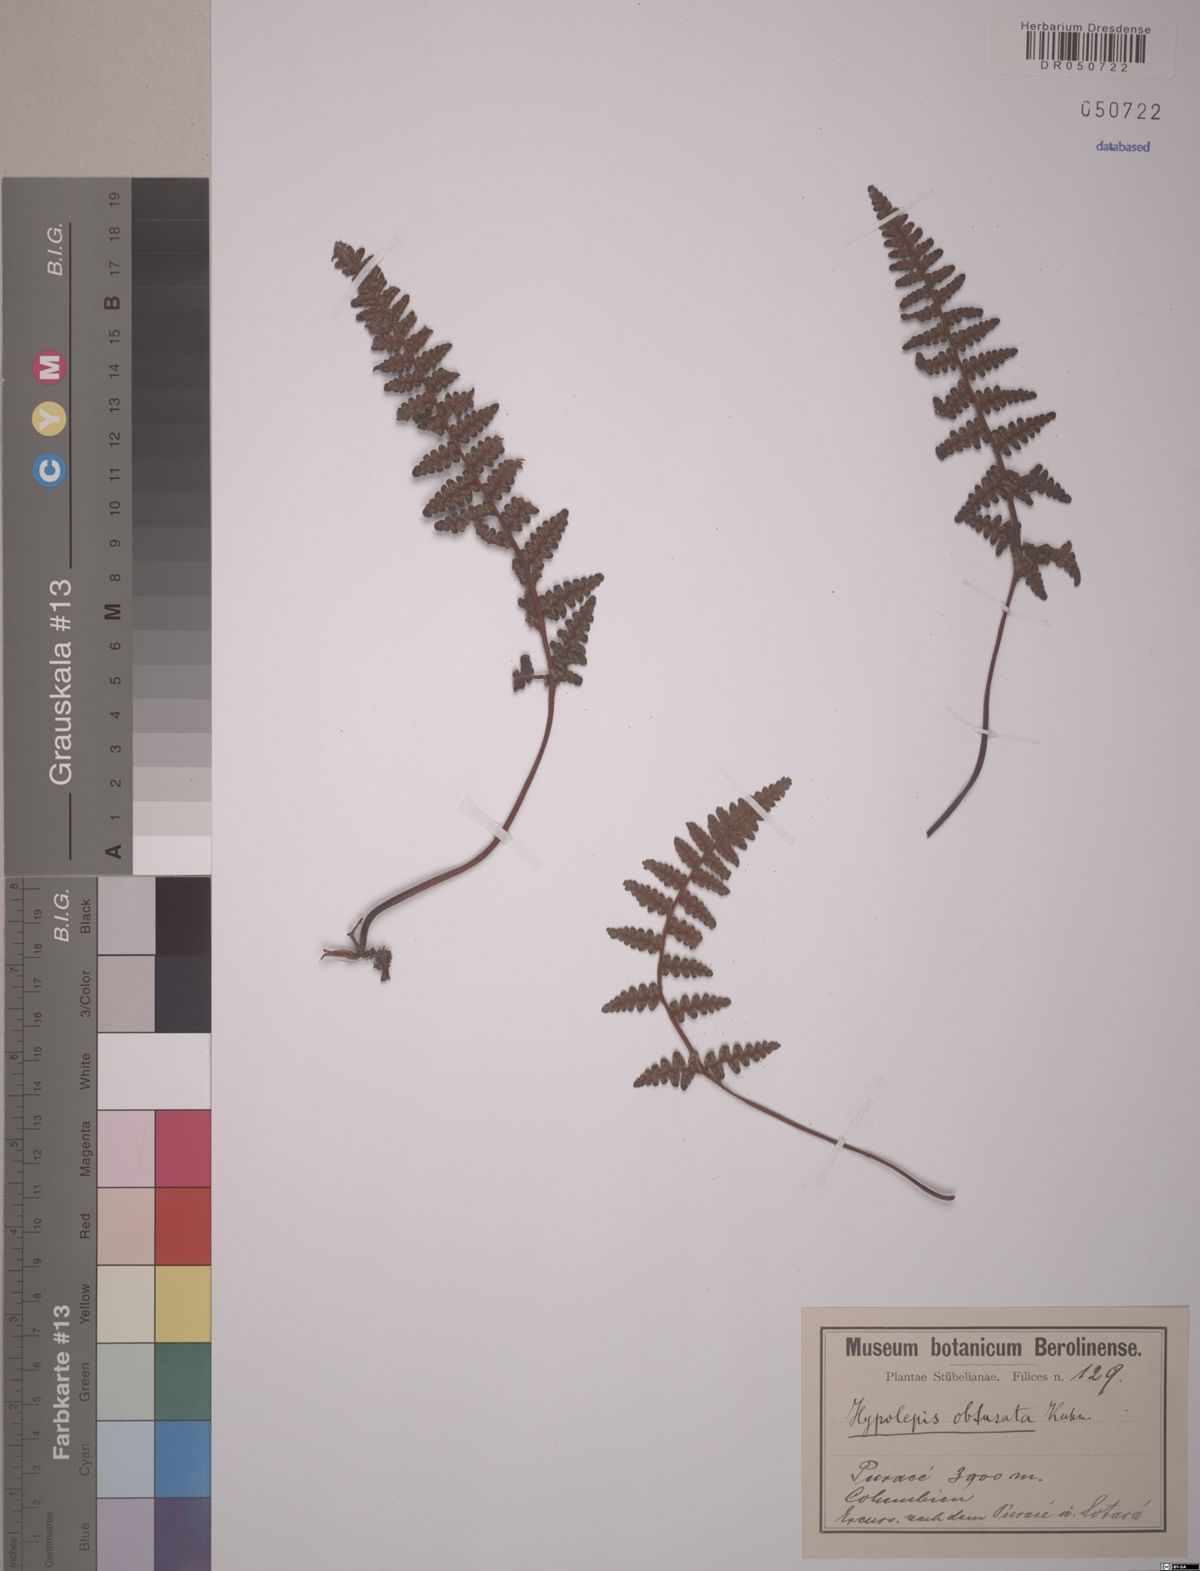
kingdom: Plantae
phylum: Tracheophyta
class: Polypodiopsida
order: Polypodiales
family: Dennstaedtiaceae
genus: Hypolepis
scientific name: Hypolepis obtusata
